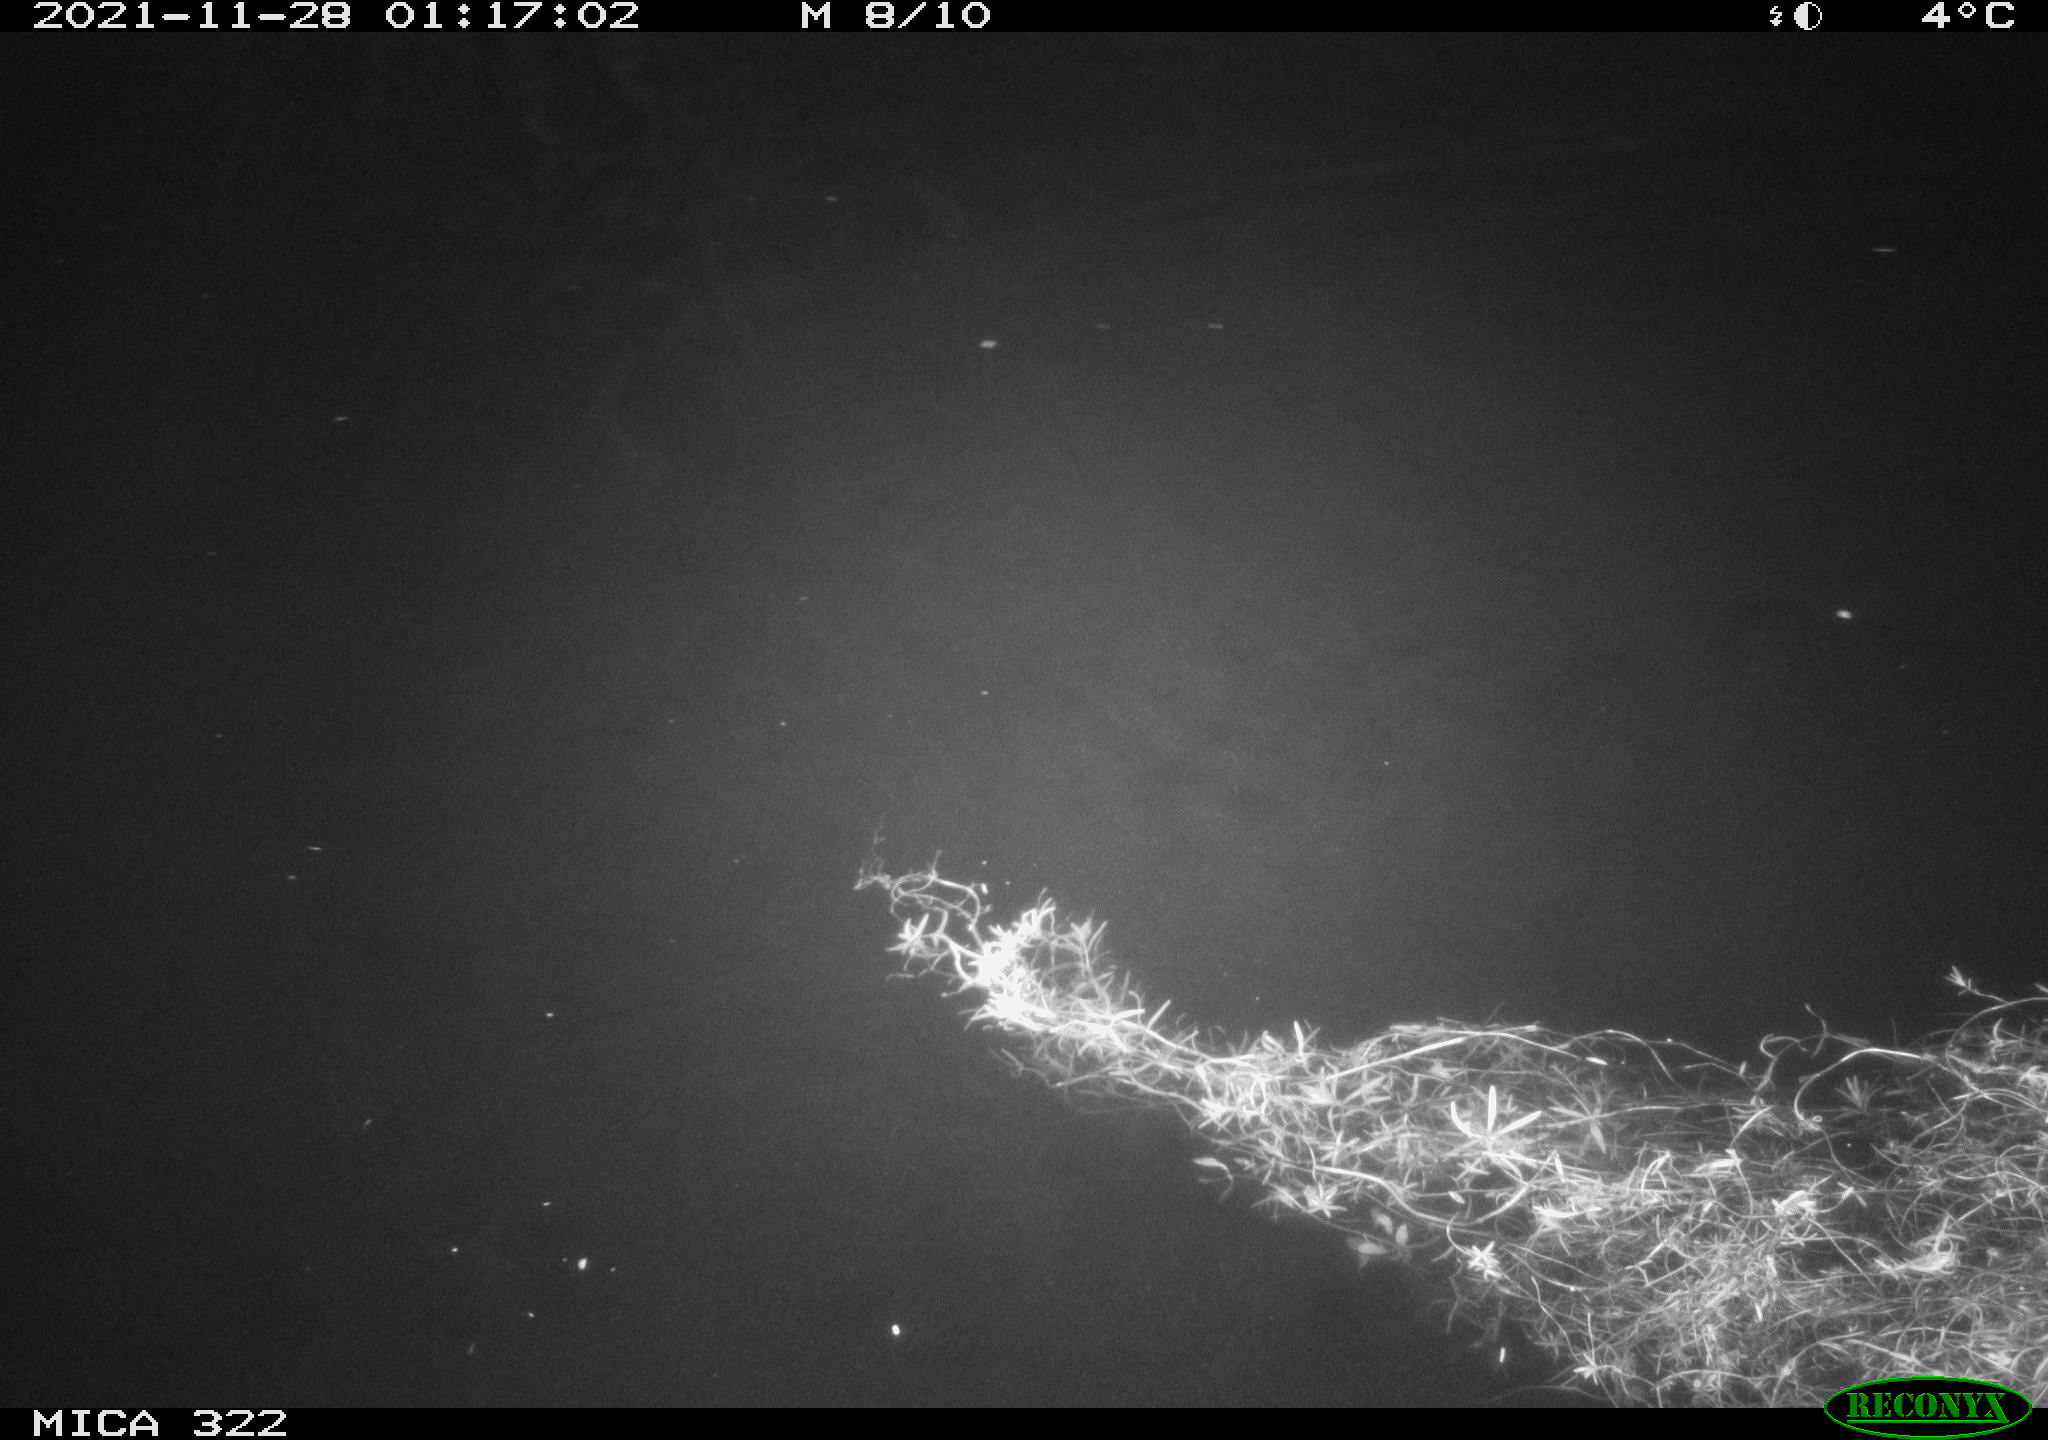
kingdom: Animalia
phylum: Chordata
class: Mammalia
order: Rodentia
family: Muridae
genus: Rattus
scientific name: Rattus norvegicus
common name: Brown rat
